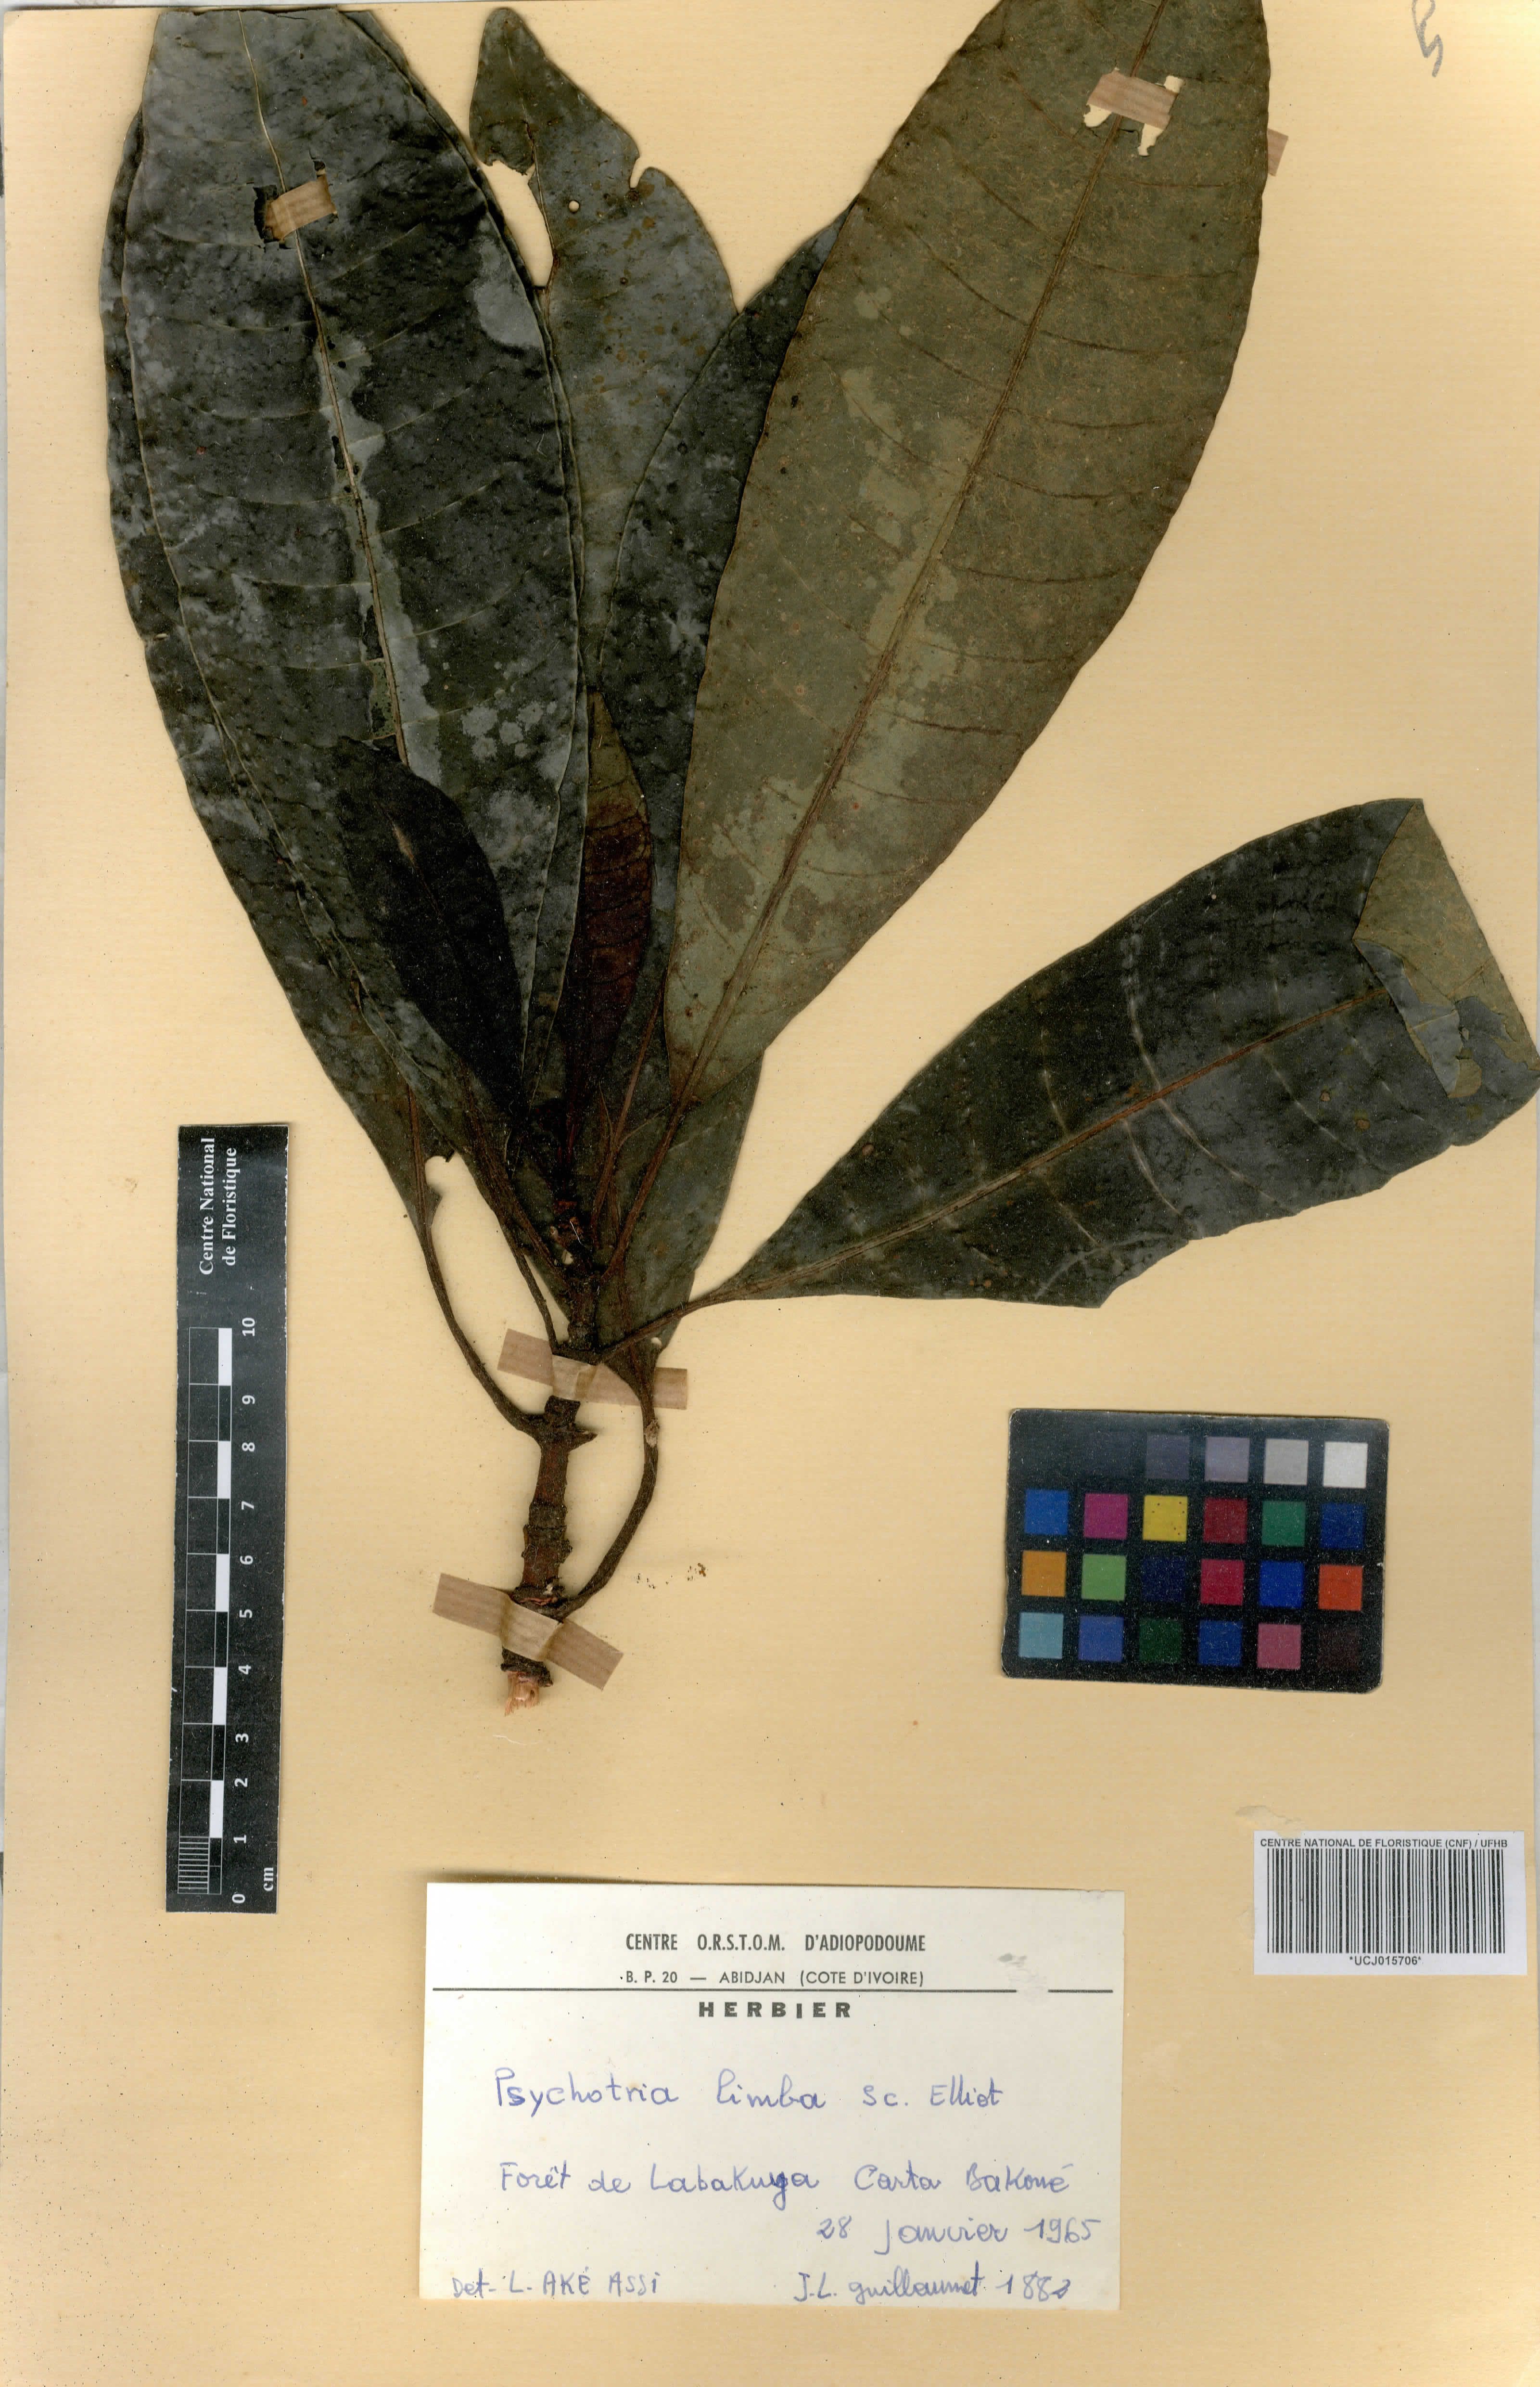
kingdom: Plantae
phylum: Tracheophyta
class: Magnoliopsida
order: Gentianales
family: Rubiaceae
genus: Psychotria
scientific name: Psychotria limba
